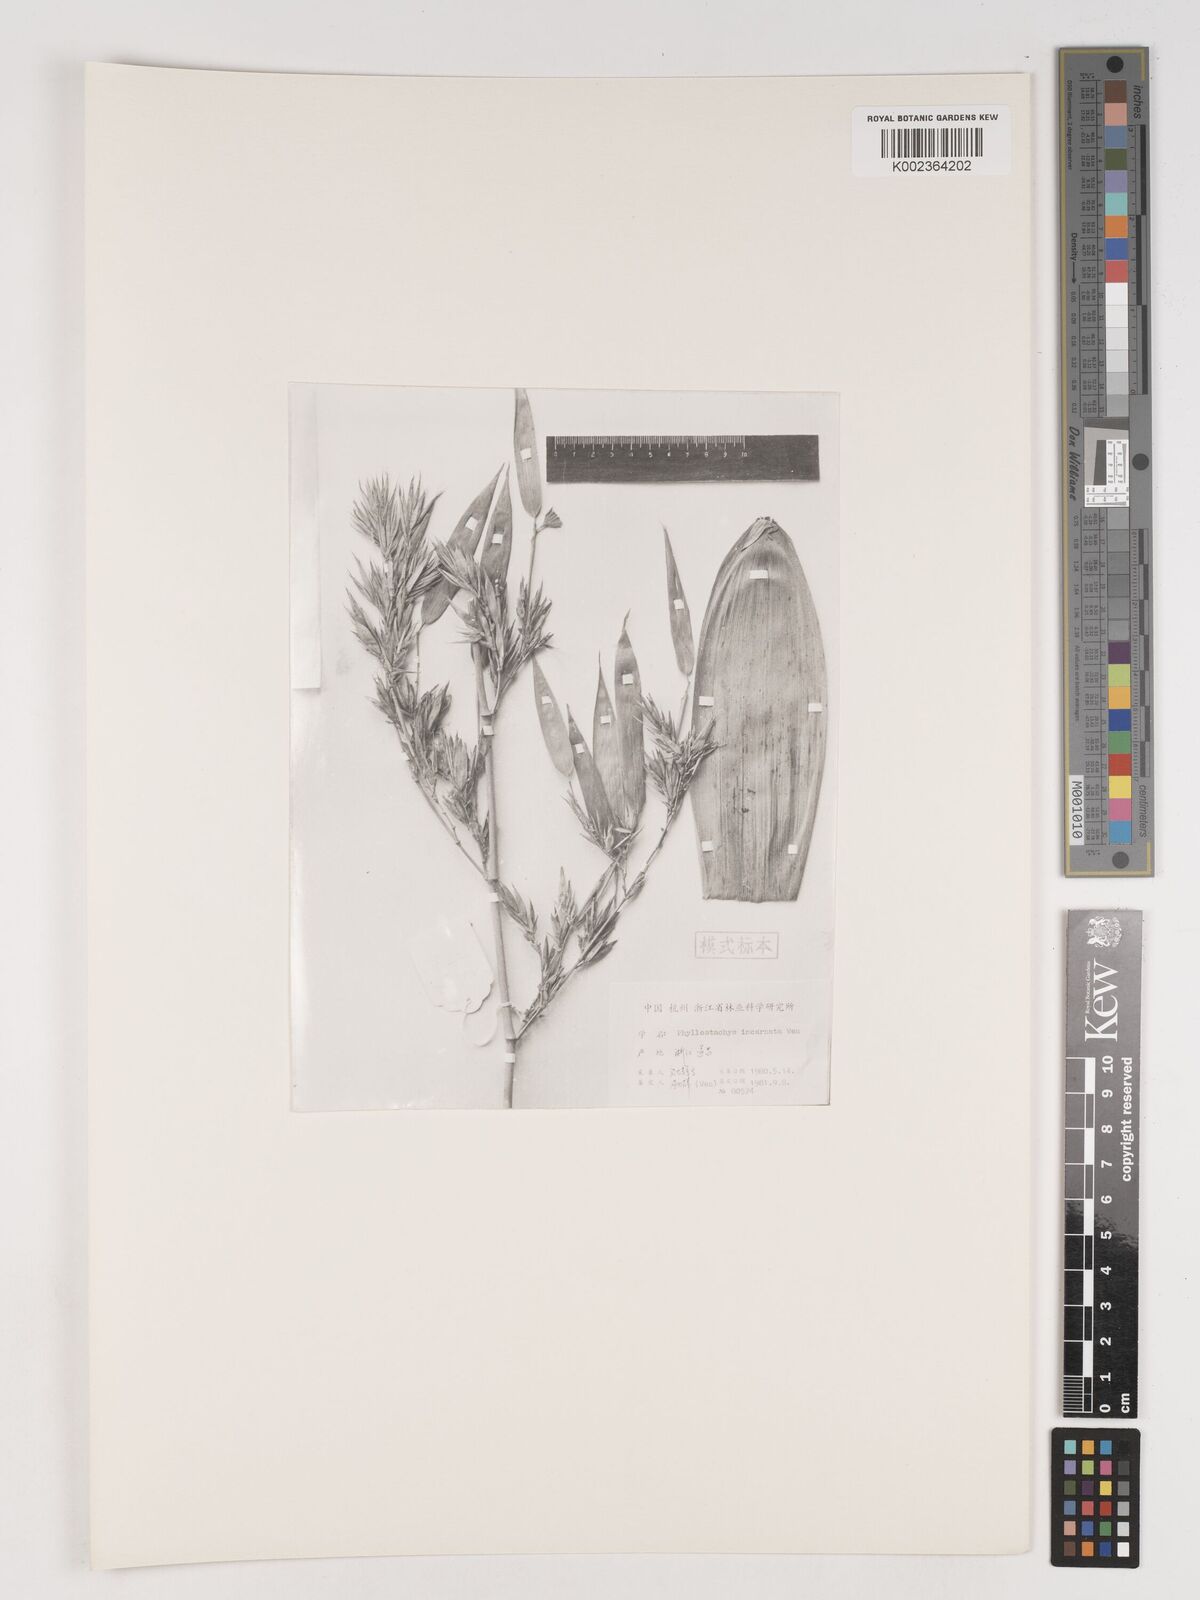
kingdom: Plantae
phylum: Tracheophyta
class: Liliopsida
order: Poales
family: Poaceae
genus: Phyllostachys
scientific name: Phyllostachys incarnata
